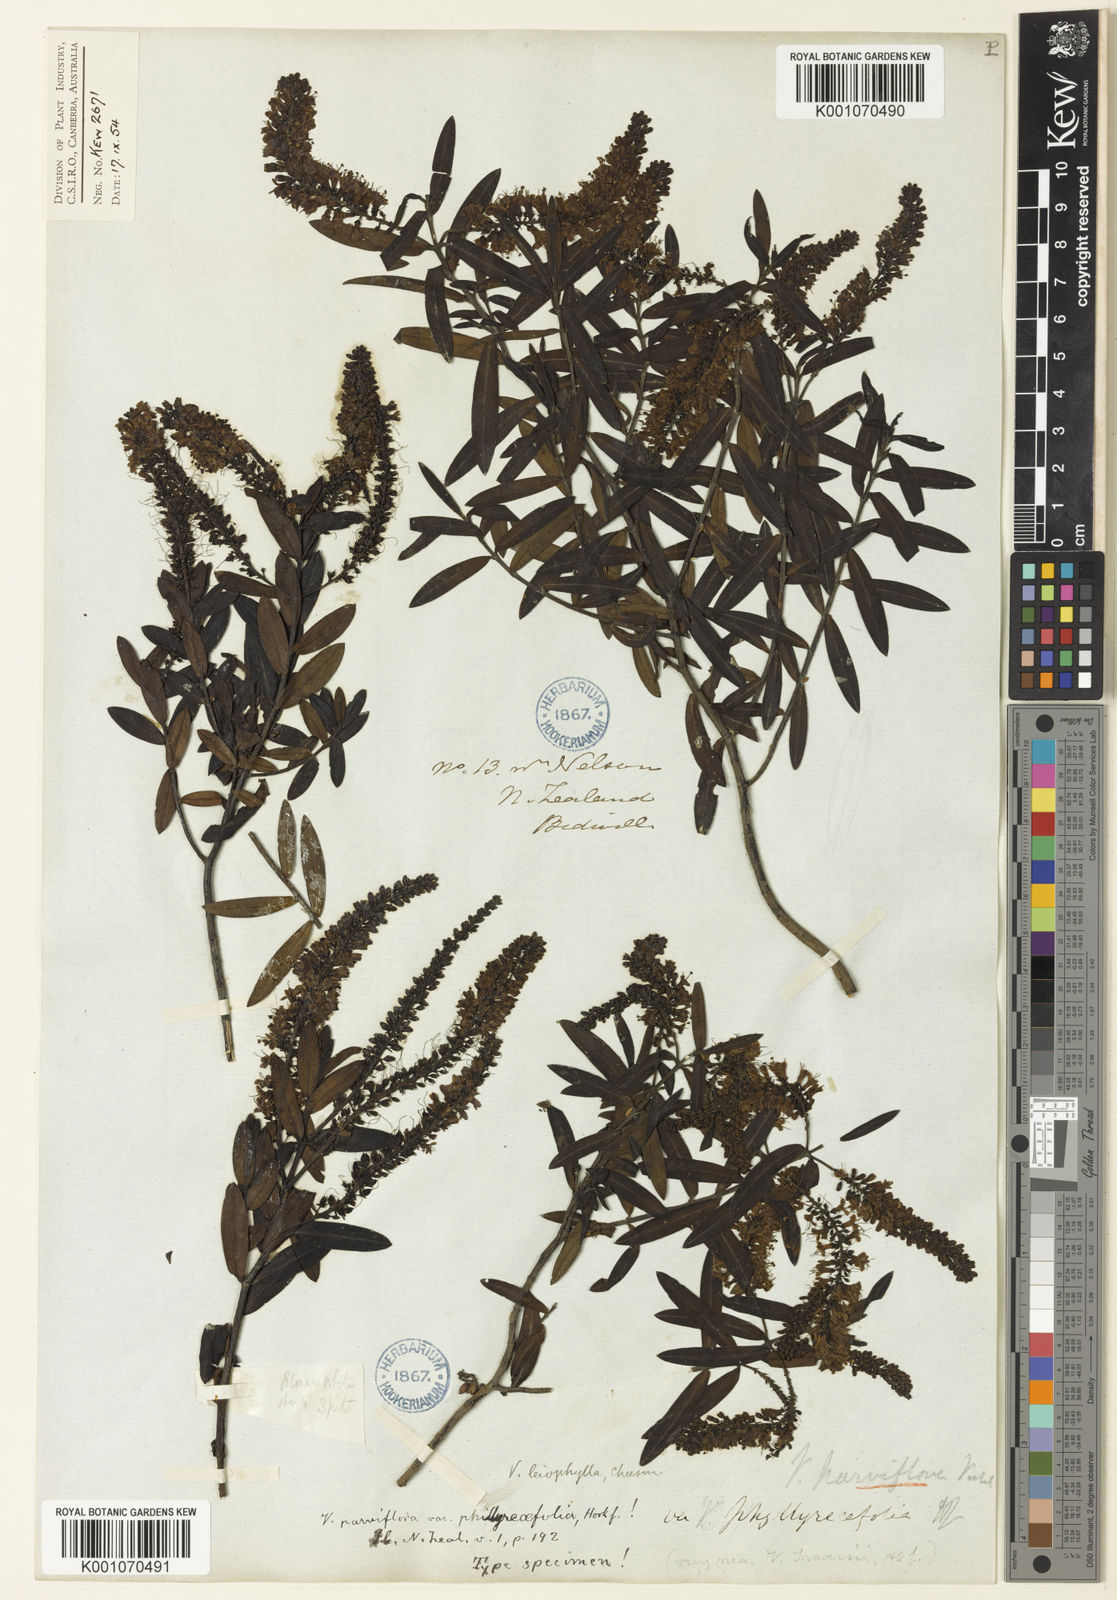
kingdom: Plantae
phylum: Tracheophyta
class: Magnoliopsida
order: Lamiales
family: Plantaginaceae
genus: Veronica
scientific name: Veronica leiophylla
